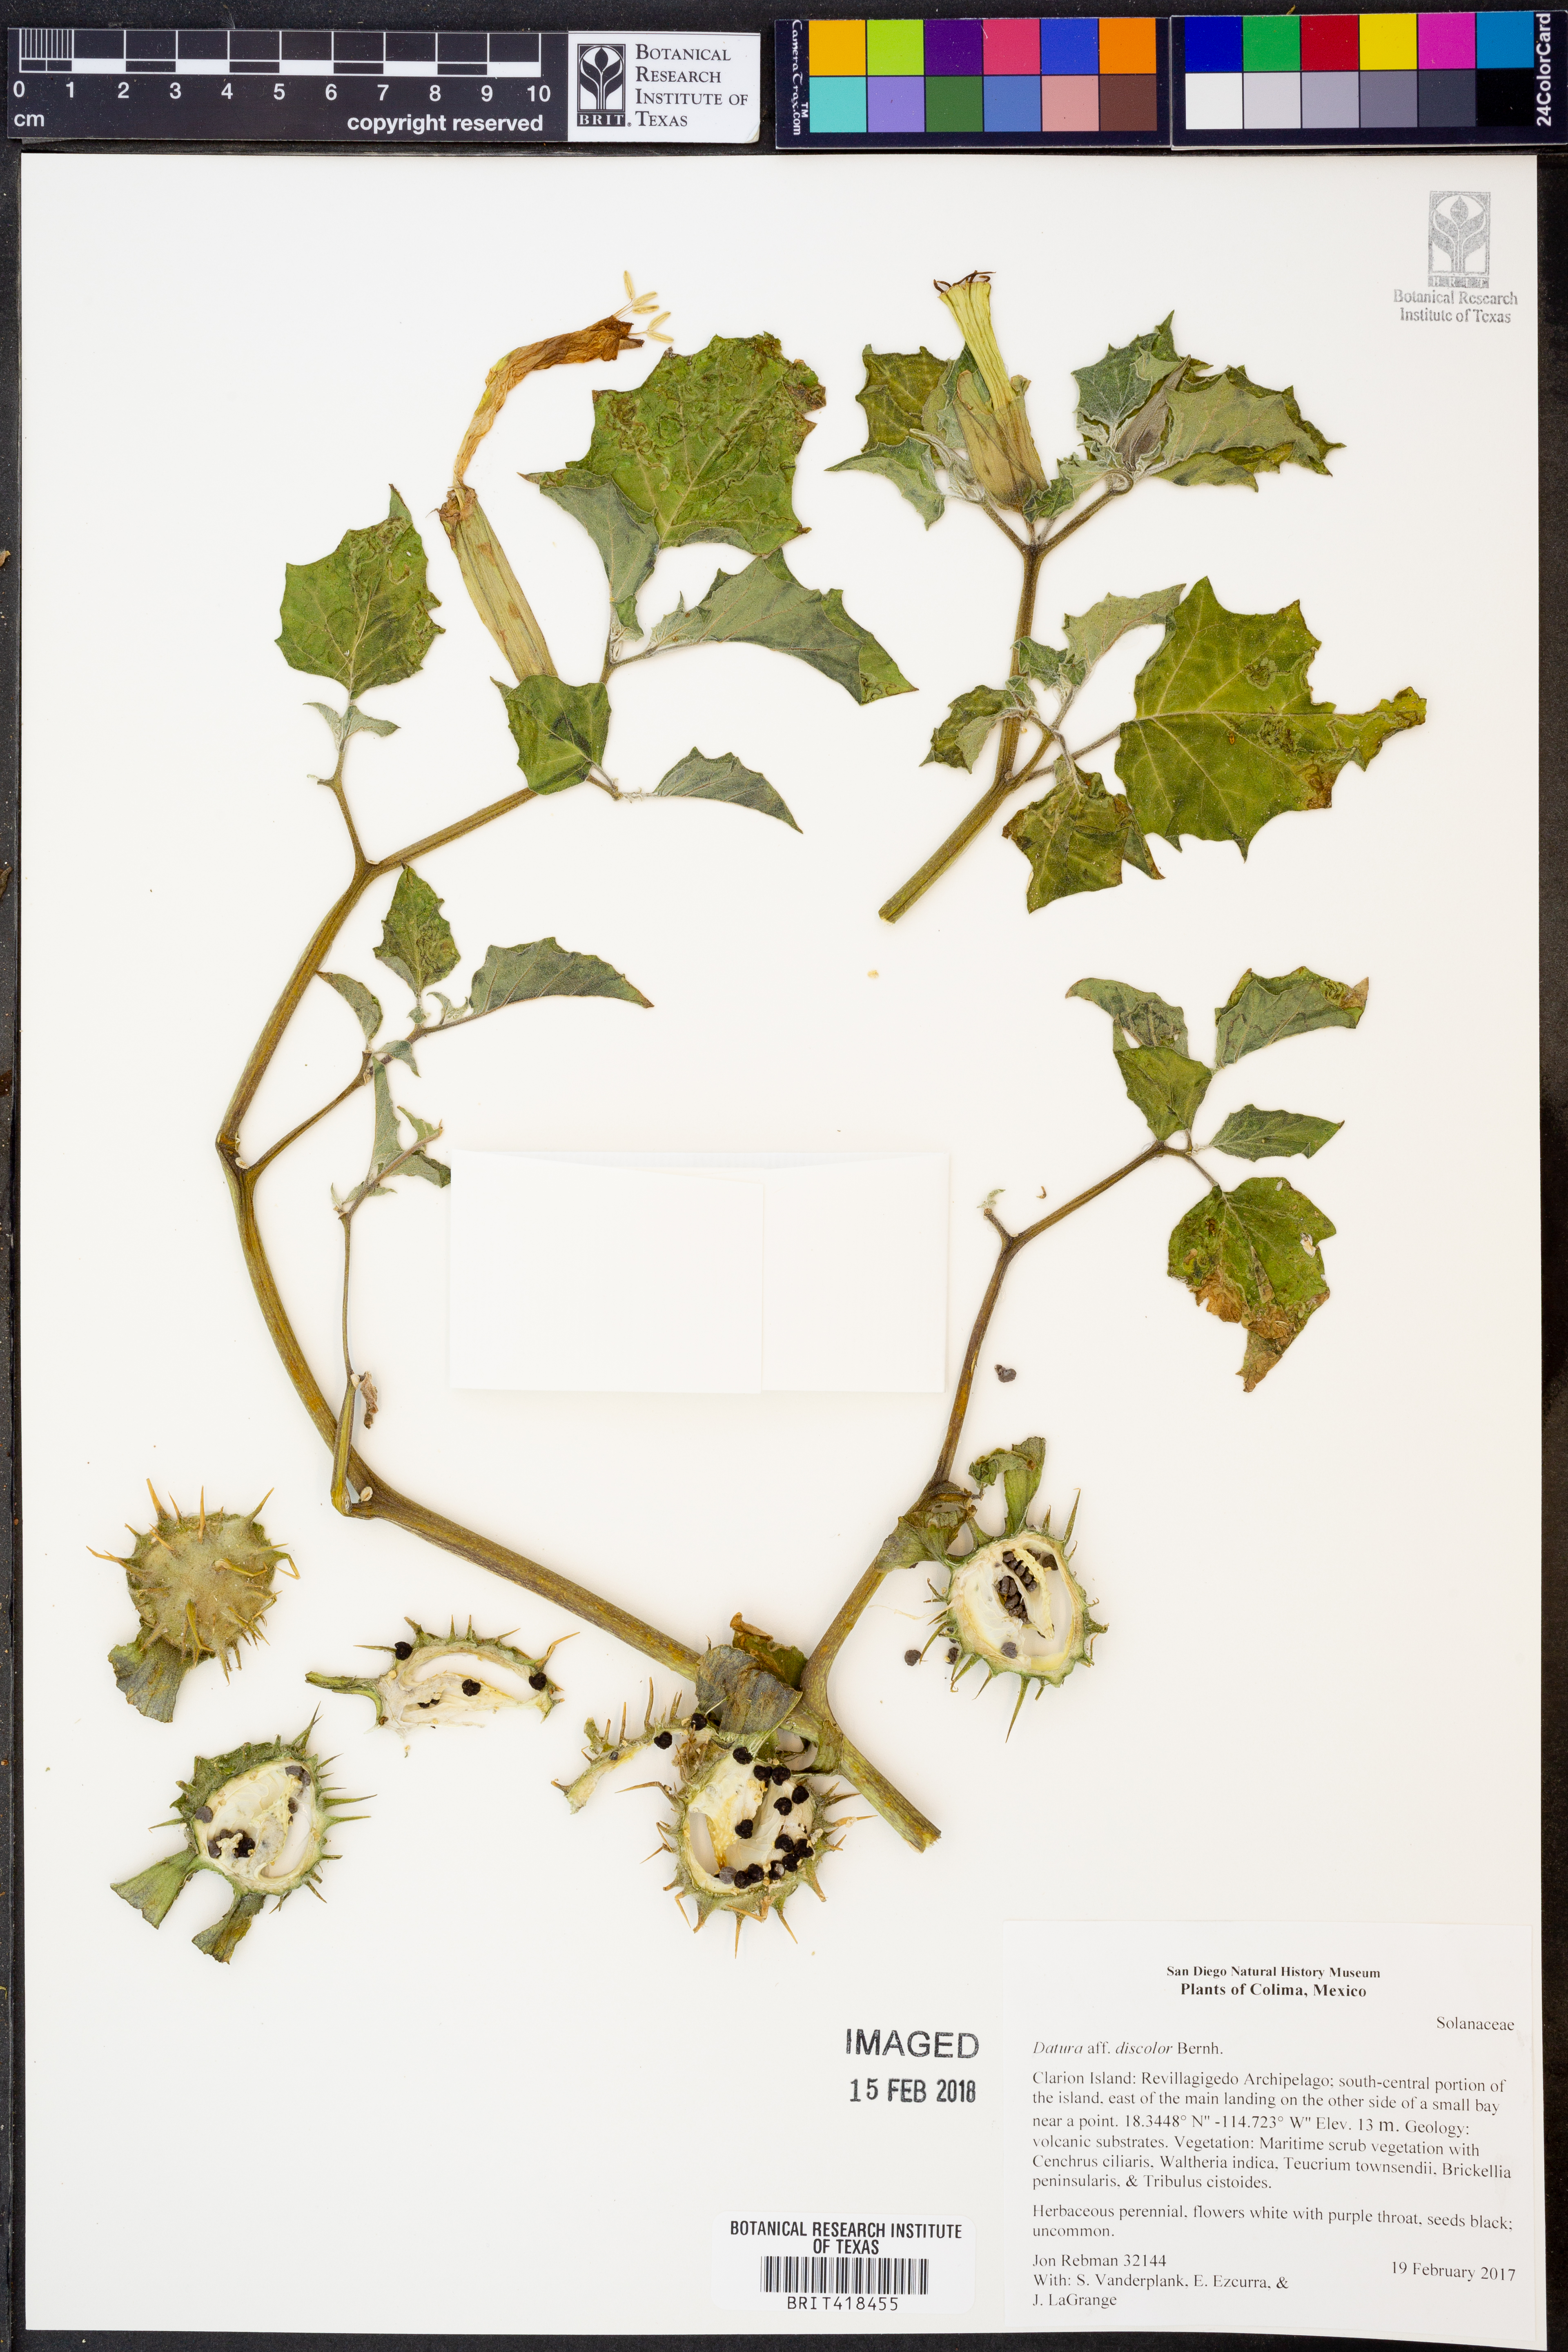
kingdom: Plantae
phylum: Tracheophyta
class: Magnoliopsida
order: Solanales
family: Solanaceae
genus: Datura
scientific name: Datura discolor
